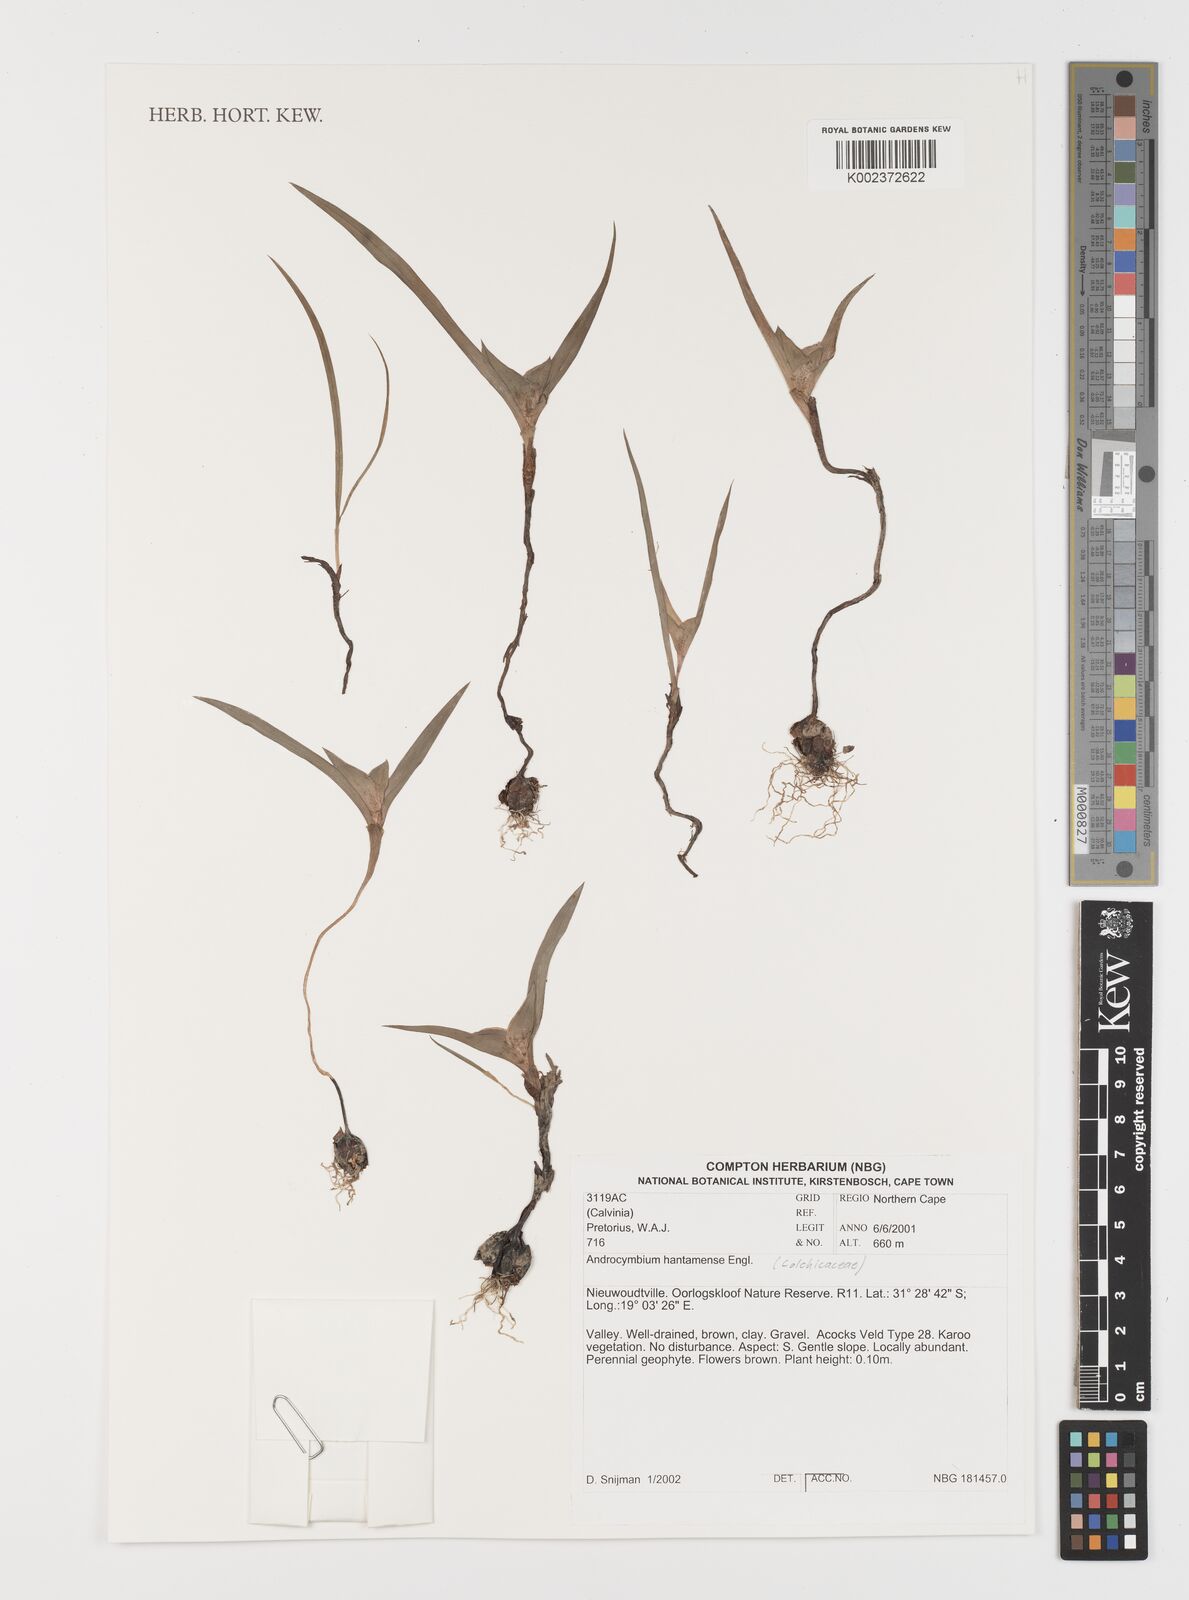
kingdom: Plantae
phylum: Tracheophyta
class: Liliopsida
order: Liliales
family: Colchicaceae
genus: Colchicum
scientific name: Colchicum hantamense
